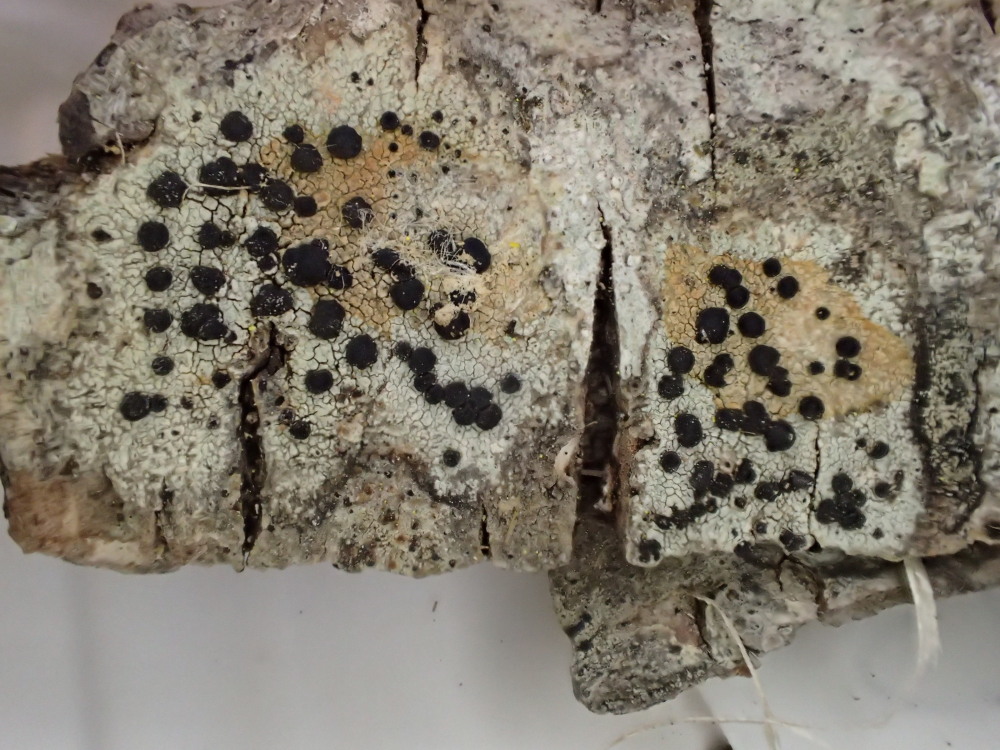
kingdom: Fungi
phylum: Ascomycota
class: Lecanoromycetes
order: Lecanorales
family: Lecanoraceae
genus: Lecidella
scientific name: Lecidella elaeochroma
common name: grågrøn skivelav
